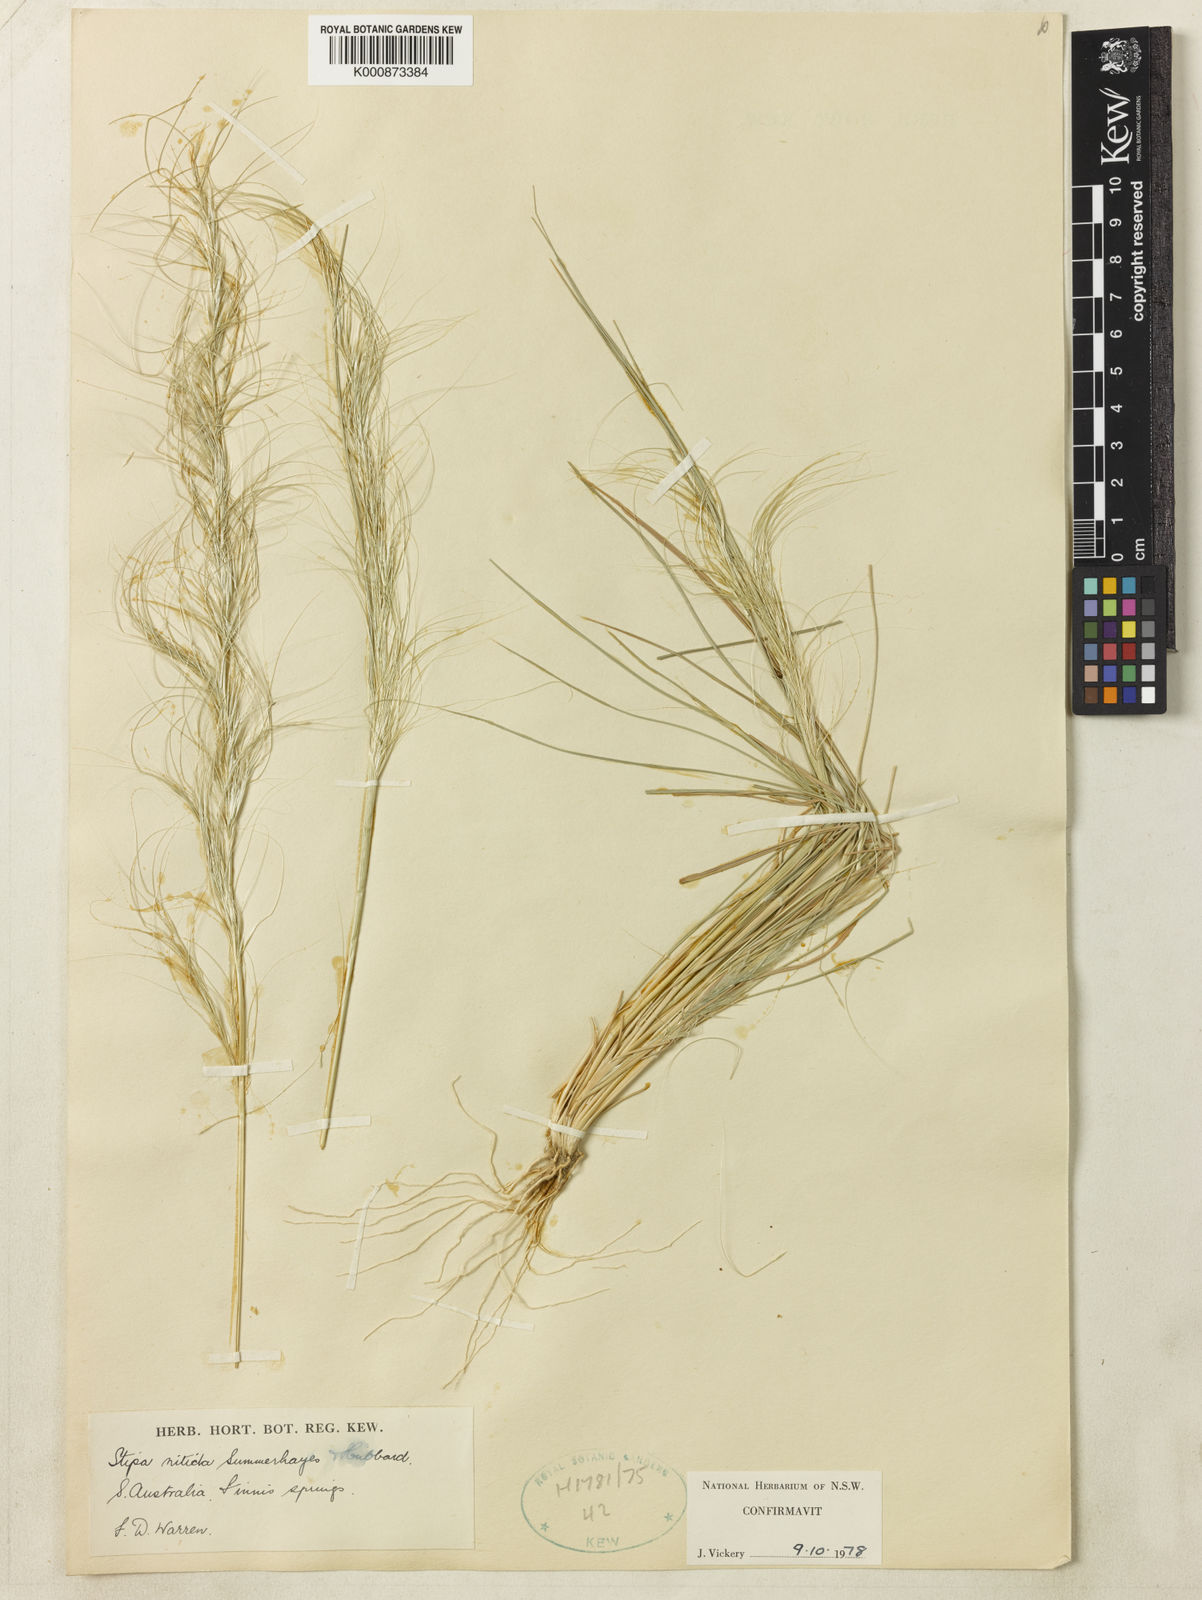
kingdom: Plantae
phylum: Tracheophyta
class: Liliopsida
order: Poales
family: Poaceae
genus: Austrostipa
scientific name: Austrostipa nitida
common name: Balcarra grass
